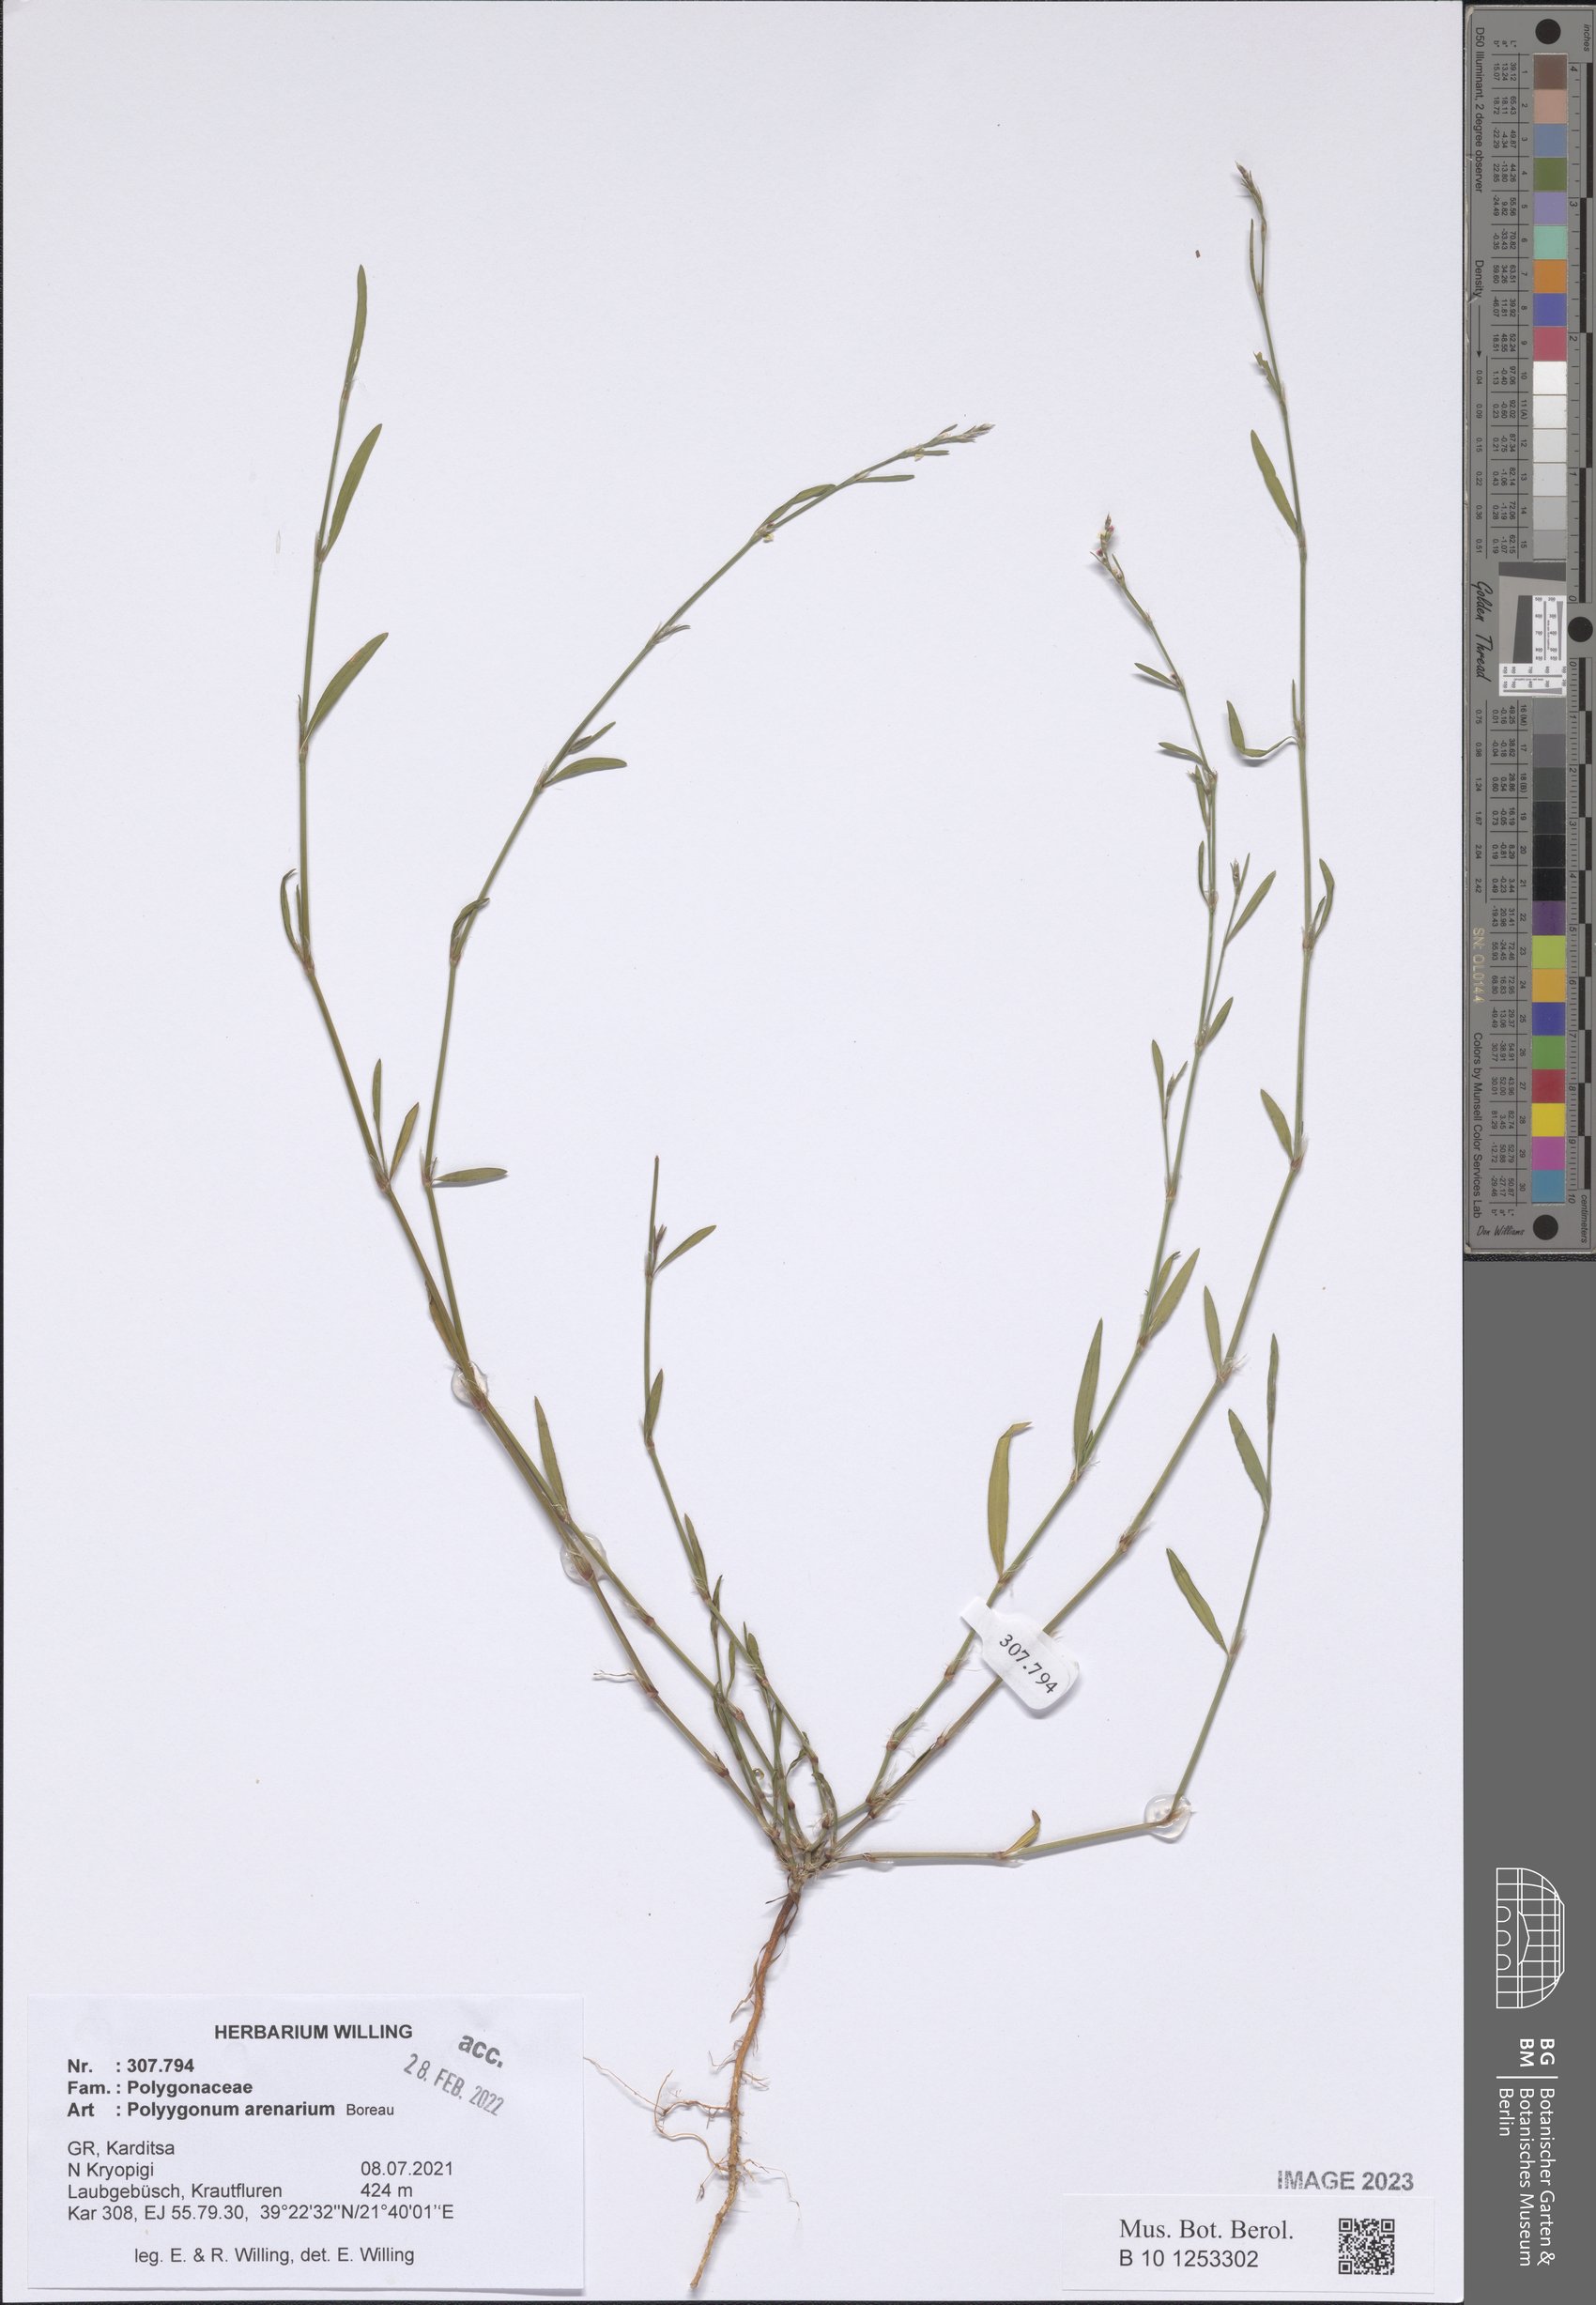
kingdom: Plantae
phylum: Tracheophyta
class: Magnoliopsida
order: Caryophyllales
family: Polygonaceae
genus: Polygonum
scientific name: Polygonum arenarium
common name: Lesser red-knotgrass
